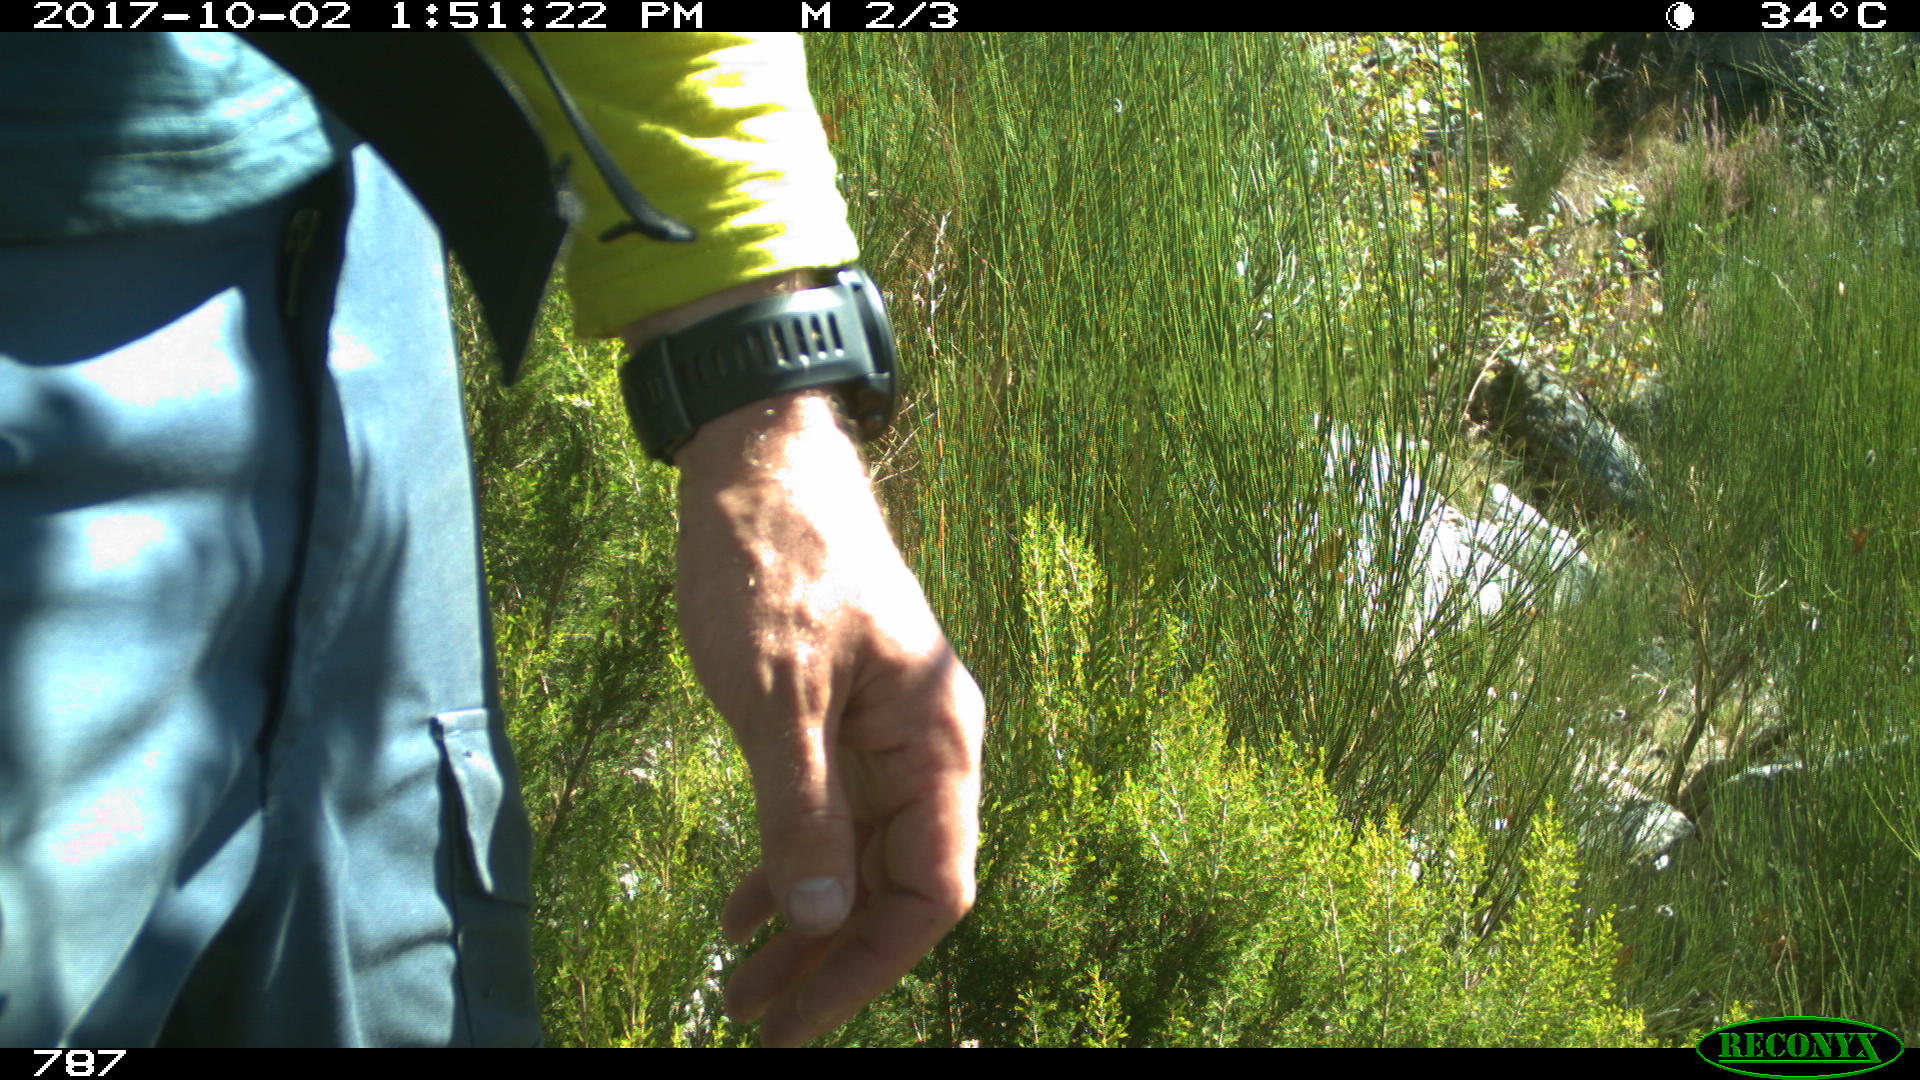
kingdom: Animalia
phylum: Chordata
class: Mammalia
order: Perissodactyla
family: Equidae
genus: Equus
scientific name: Equus caballus
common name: Horse
